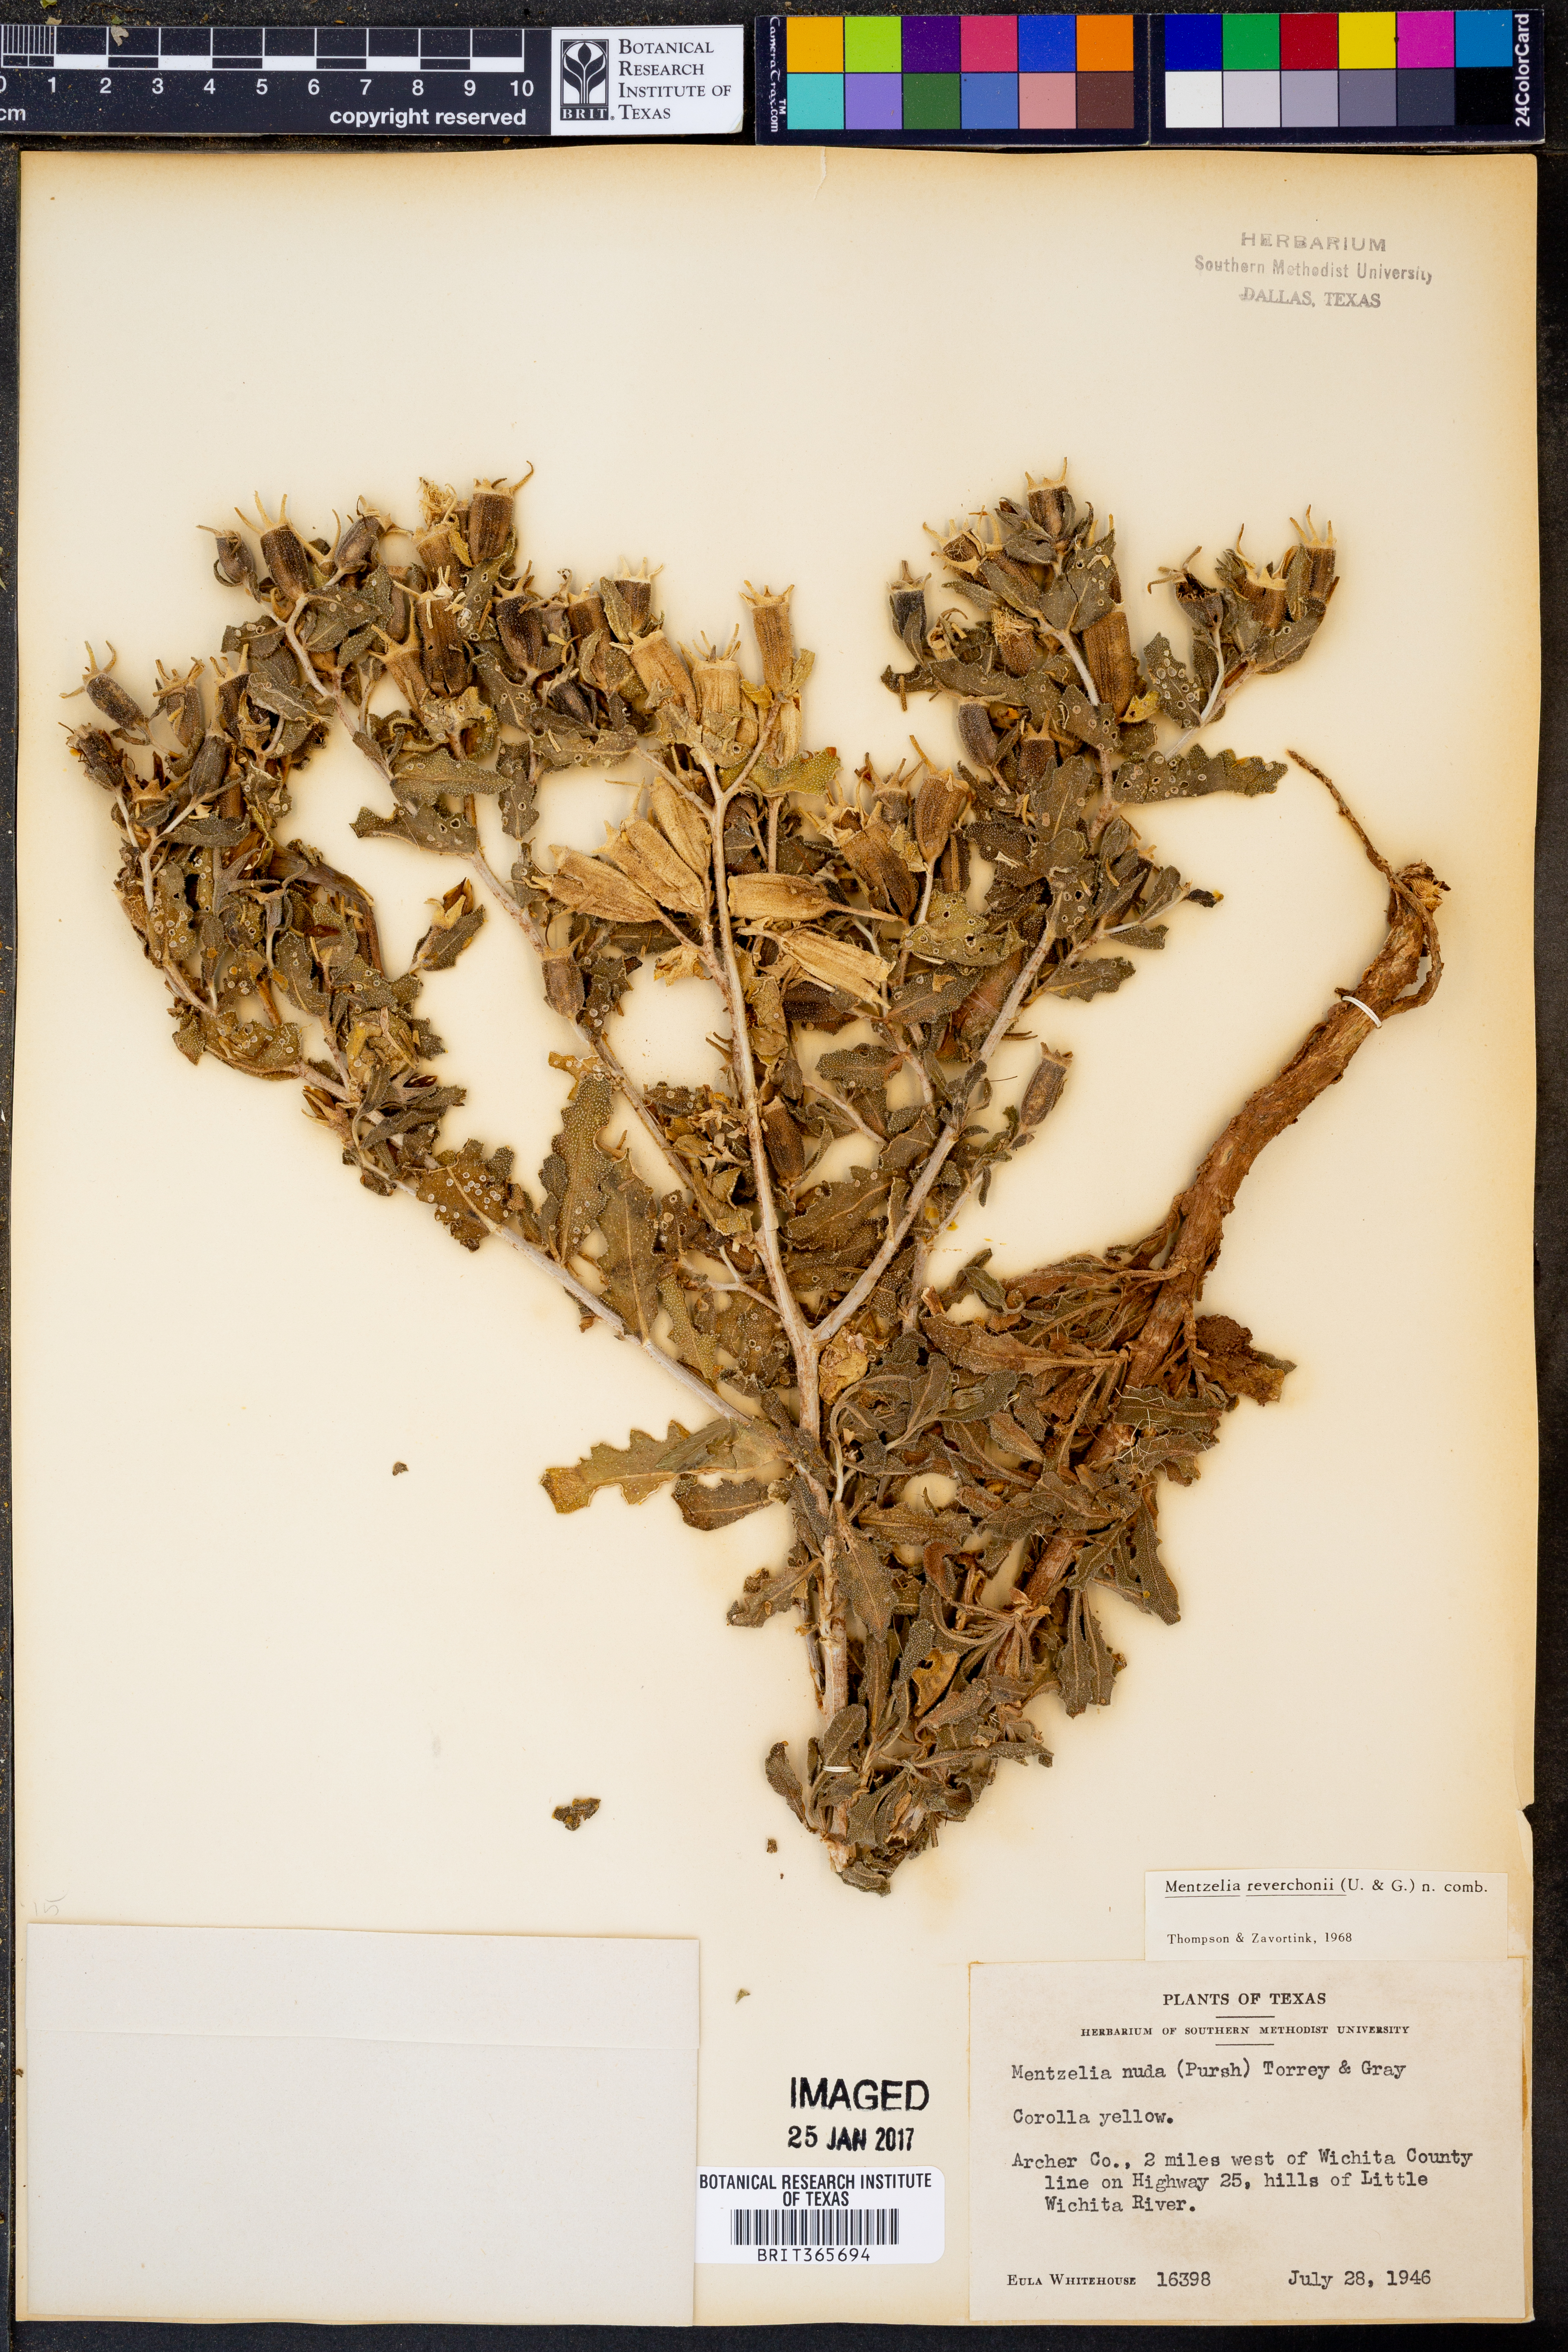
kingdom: Plantae
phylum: Tracheophyta
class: Magnoliopsida
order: Cornales
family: Loasaceae
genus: Mentzelia
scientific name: Mentzelia reverchonii
